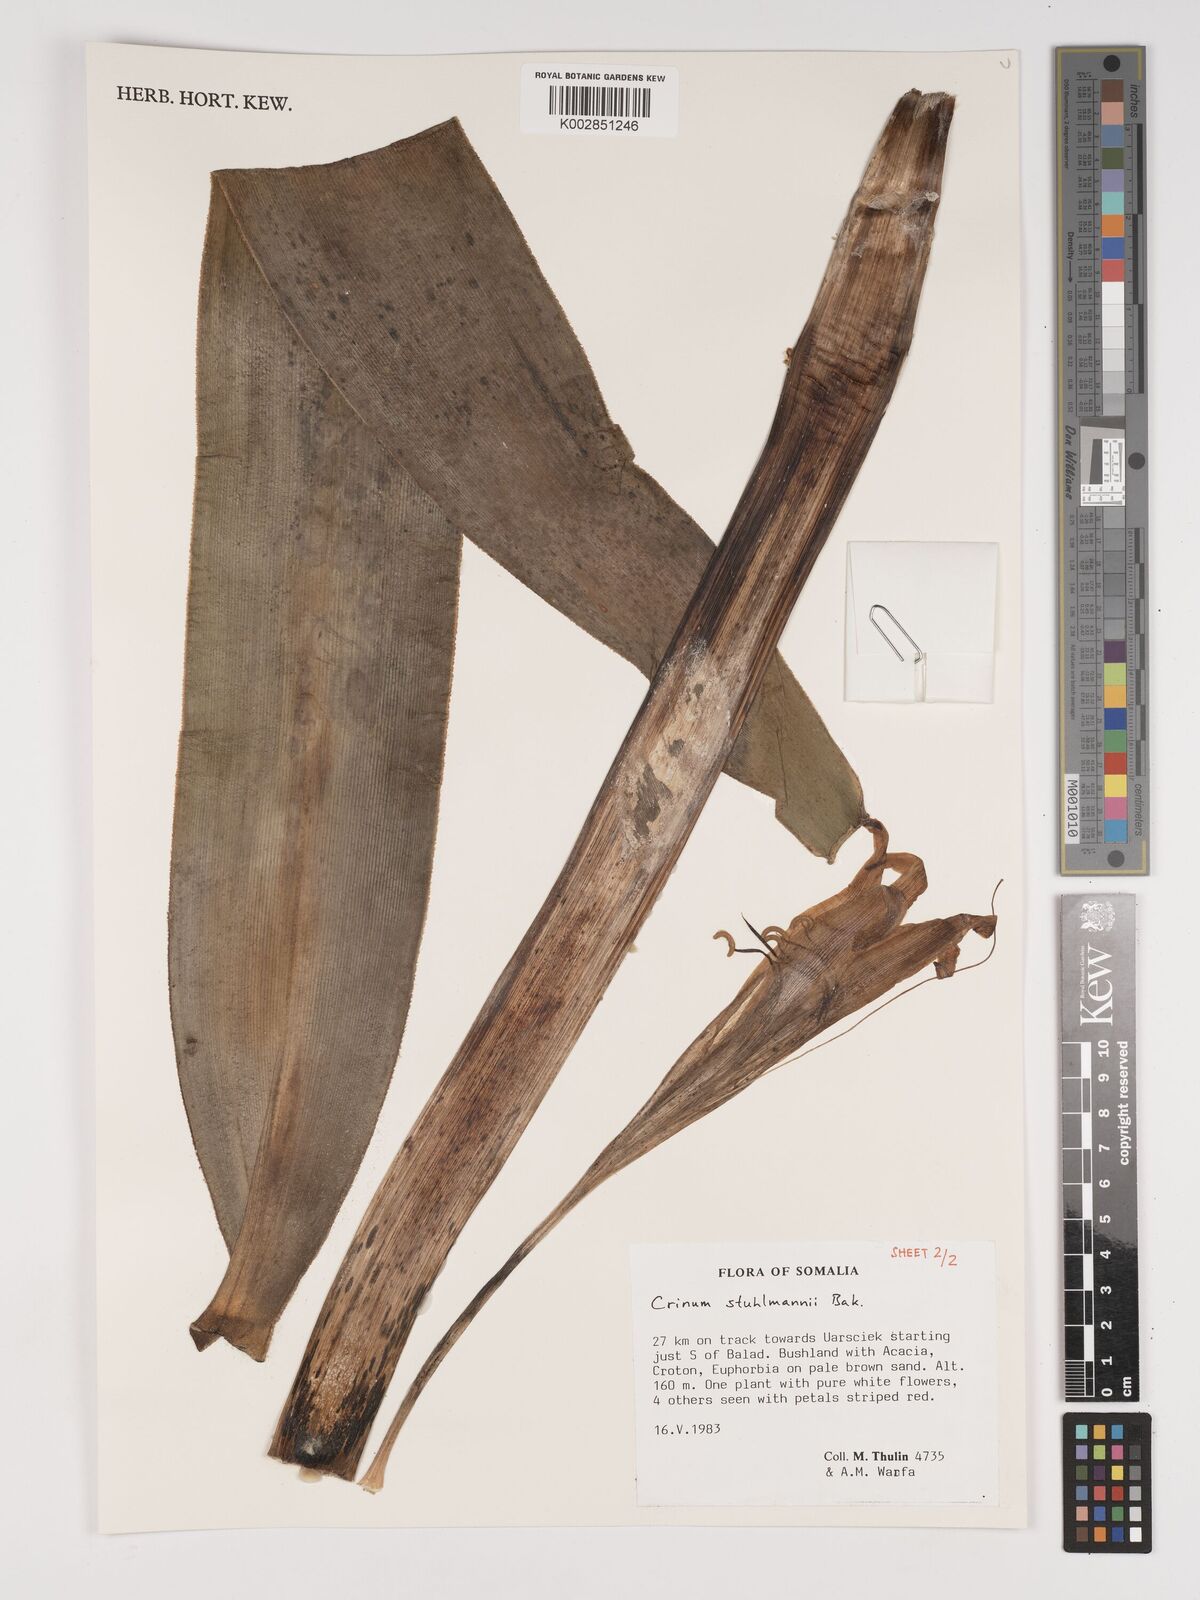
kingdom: Plantae
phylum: Tracheophyta
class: Liliopsida
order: Asparagales
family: Amaryllidaceae
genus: Crinum
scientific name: Crinum stuhlmannii
